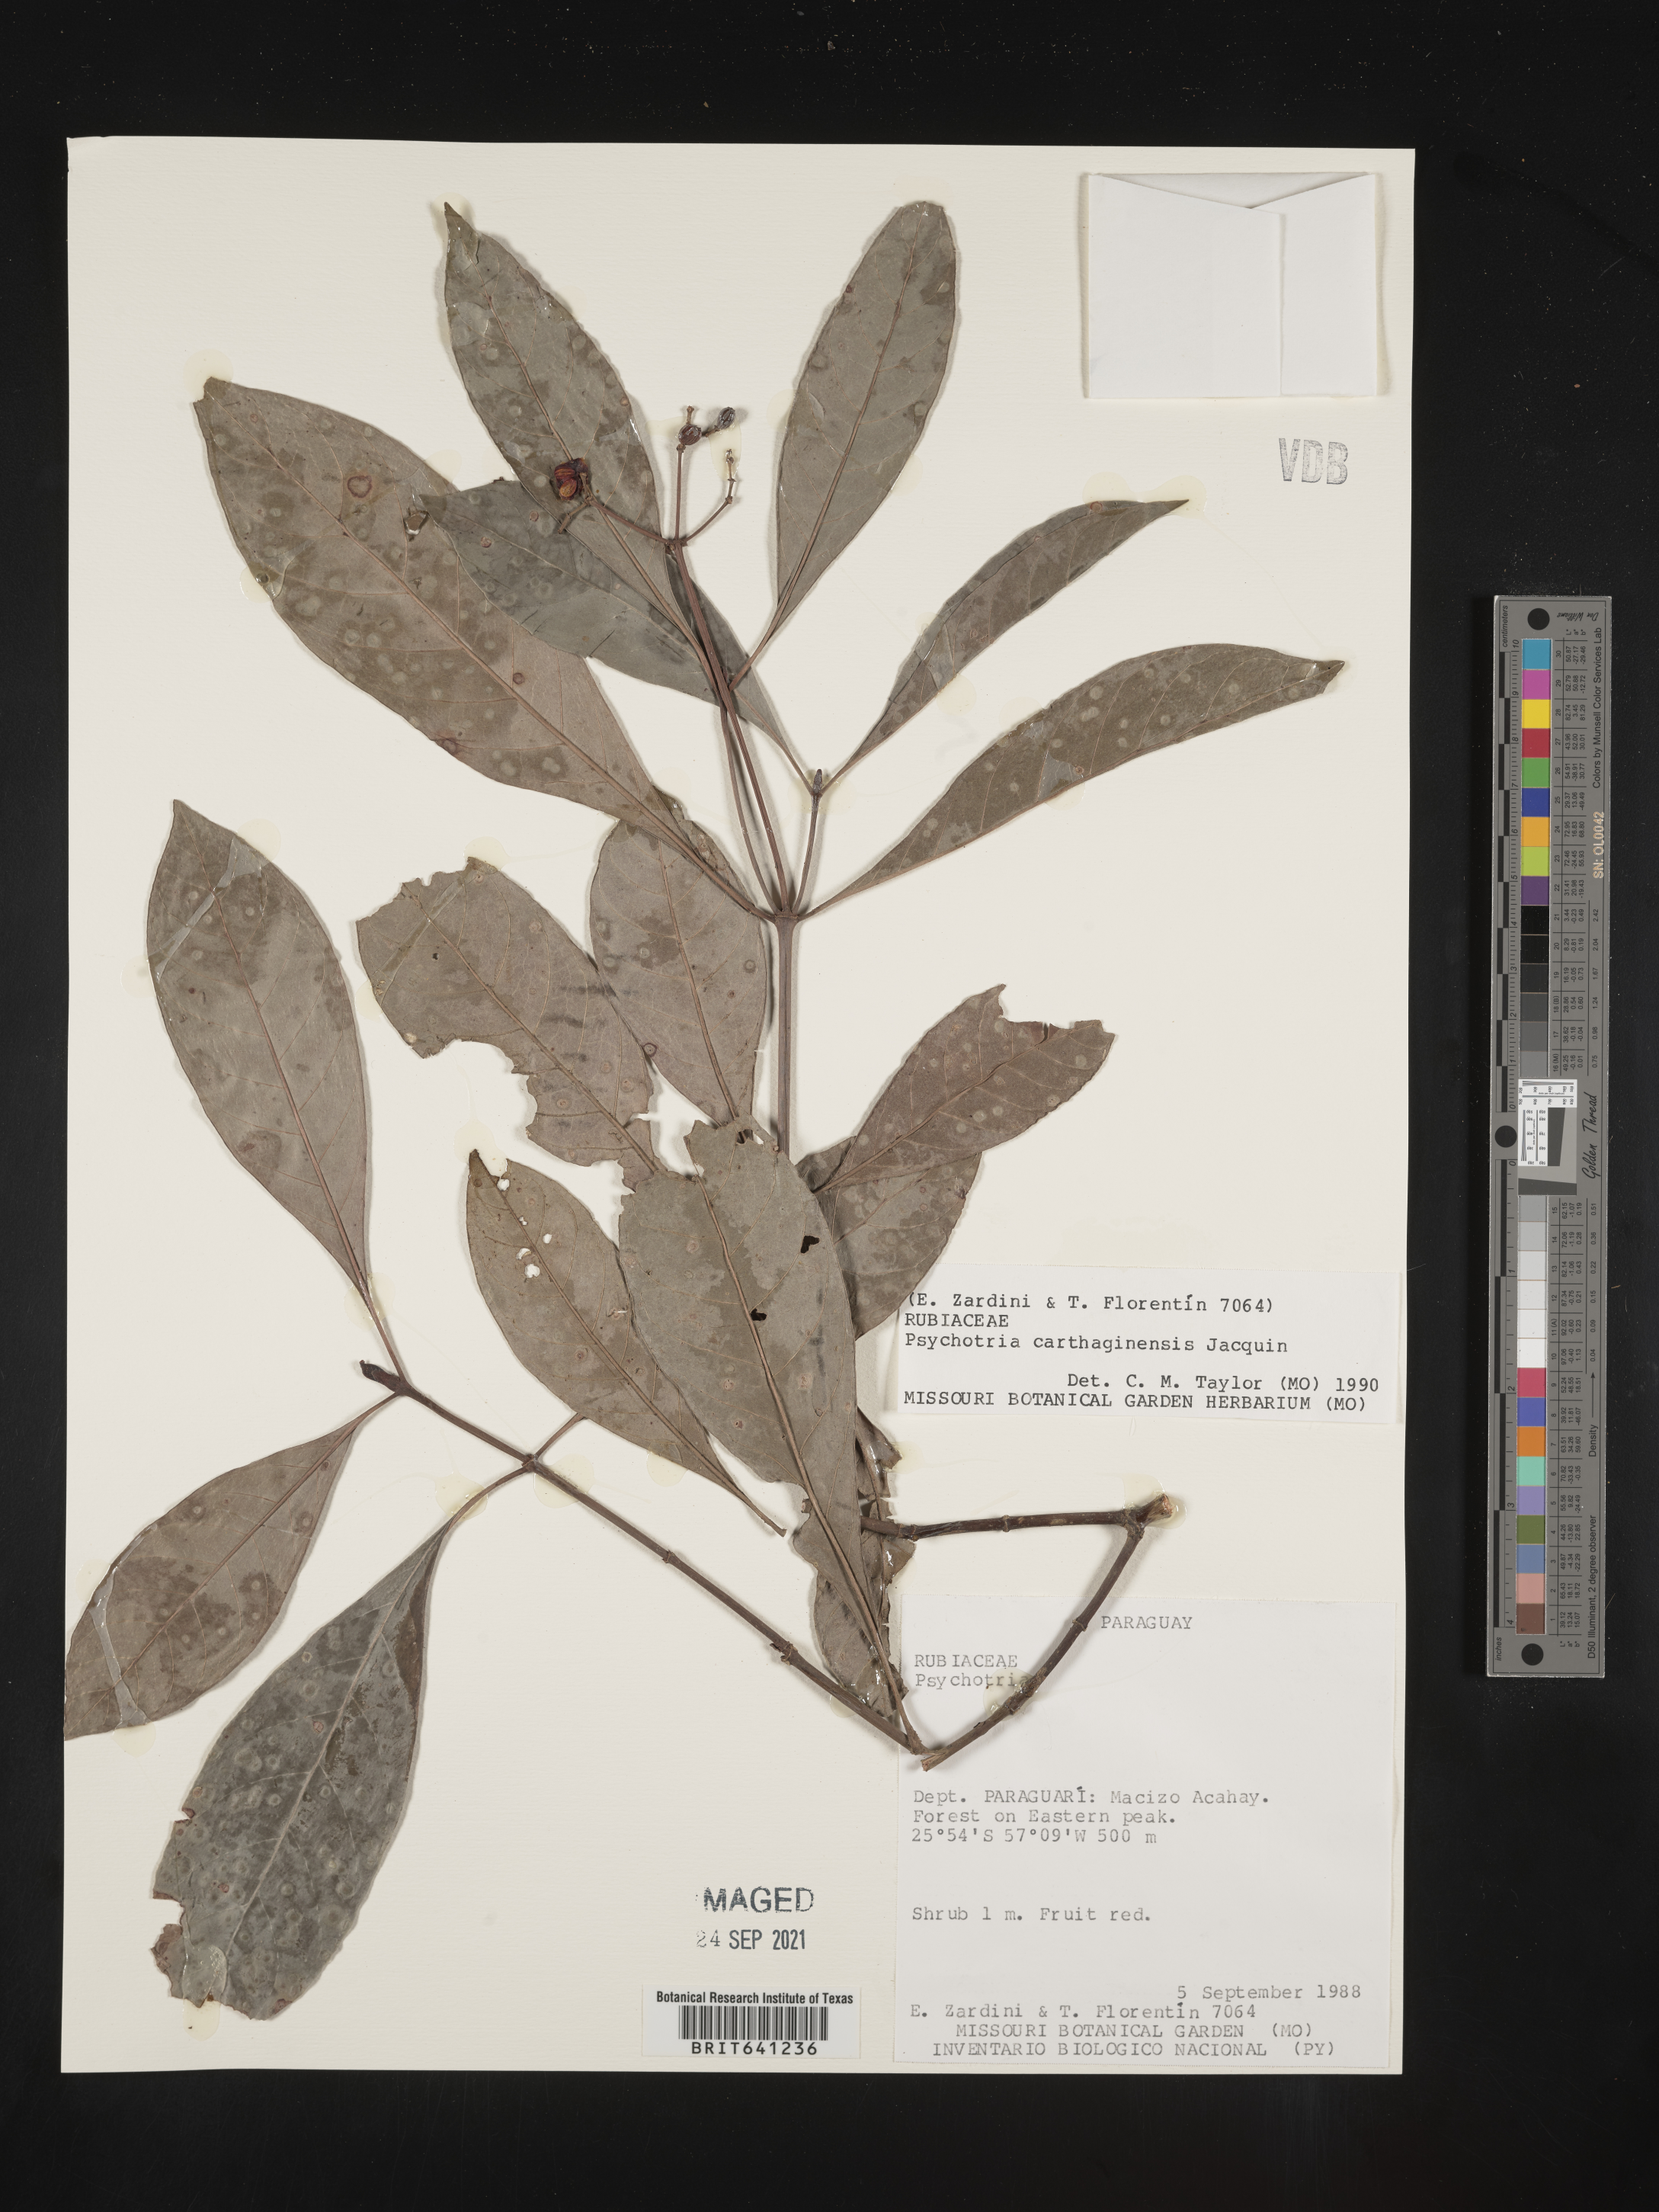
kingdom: Plantae
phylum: Tracheophyta
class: Magnoliopsida
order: Gentianales
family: Rubiaceae
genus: Psychotria
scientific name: Psychotria
